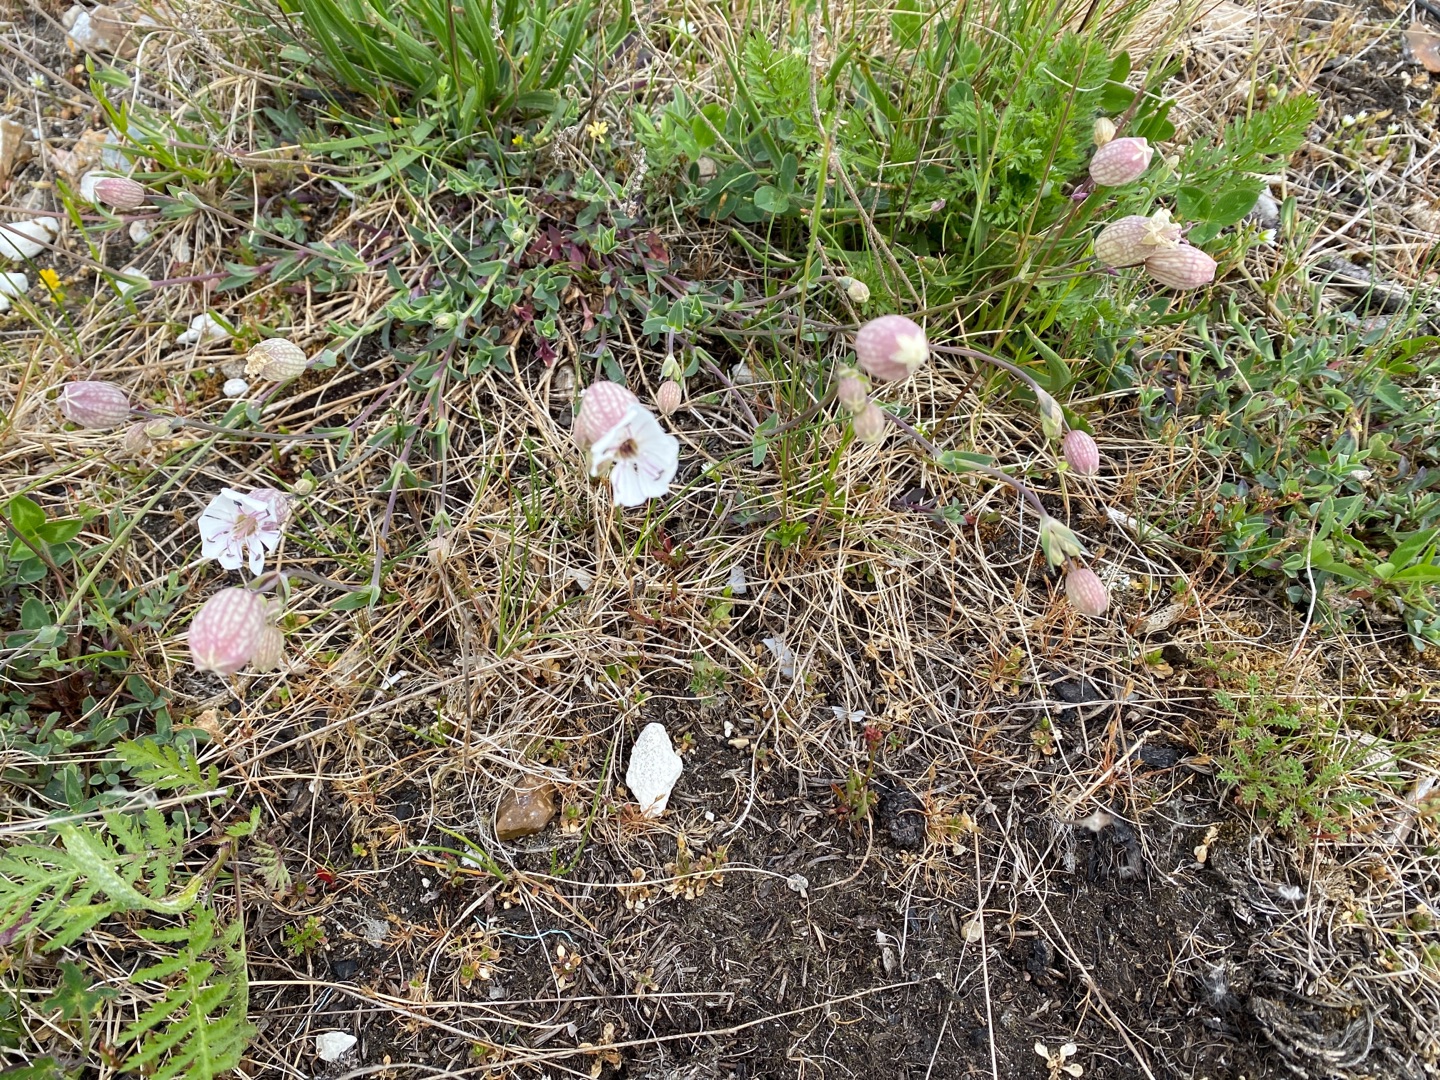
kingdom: Plantae
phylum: Tracheophyta
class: Magnoliopsida
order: Caryophyllales
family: Caryophyllaceae
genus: Silene
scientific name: Silene vulgaris
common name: Blæresmælde
